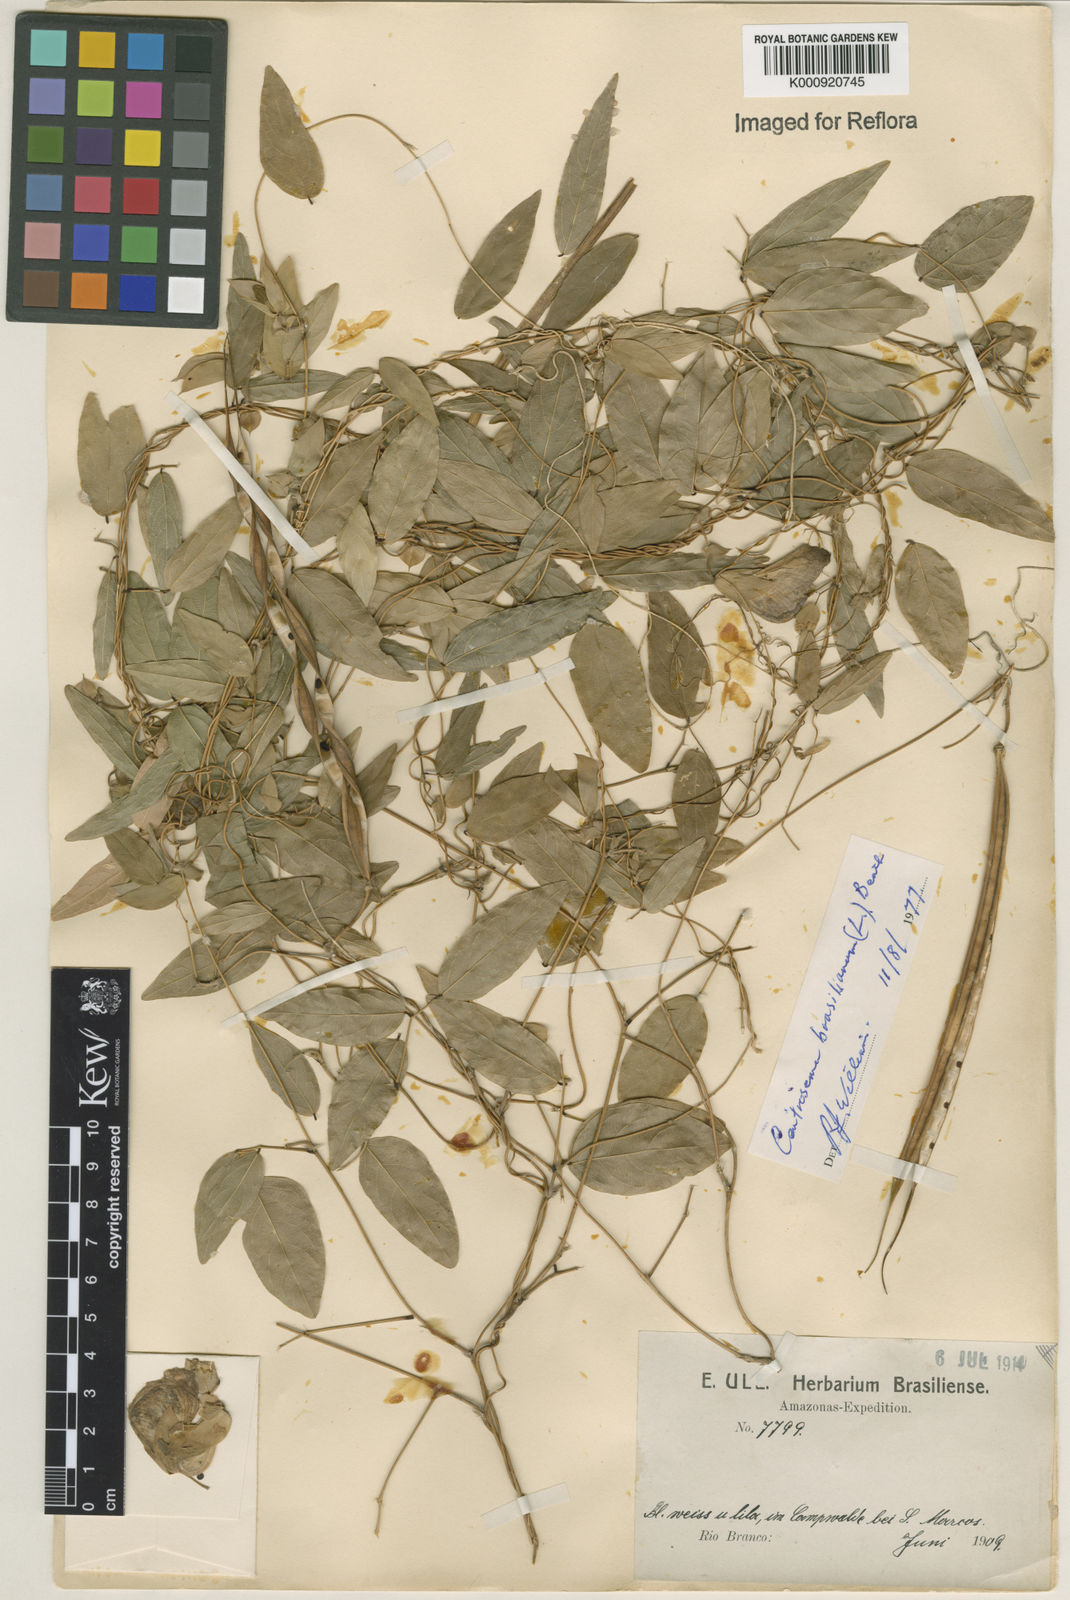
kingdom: Plantae
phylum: Tracheophyta
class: Magnoliopsida
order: Fabales
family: Fabaceae
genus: Centrosema
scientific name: Centrosema brasilianum
